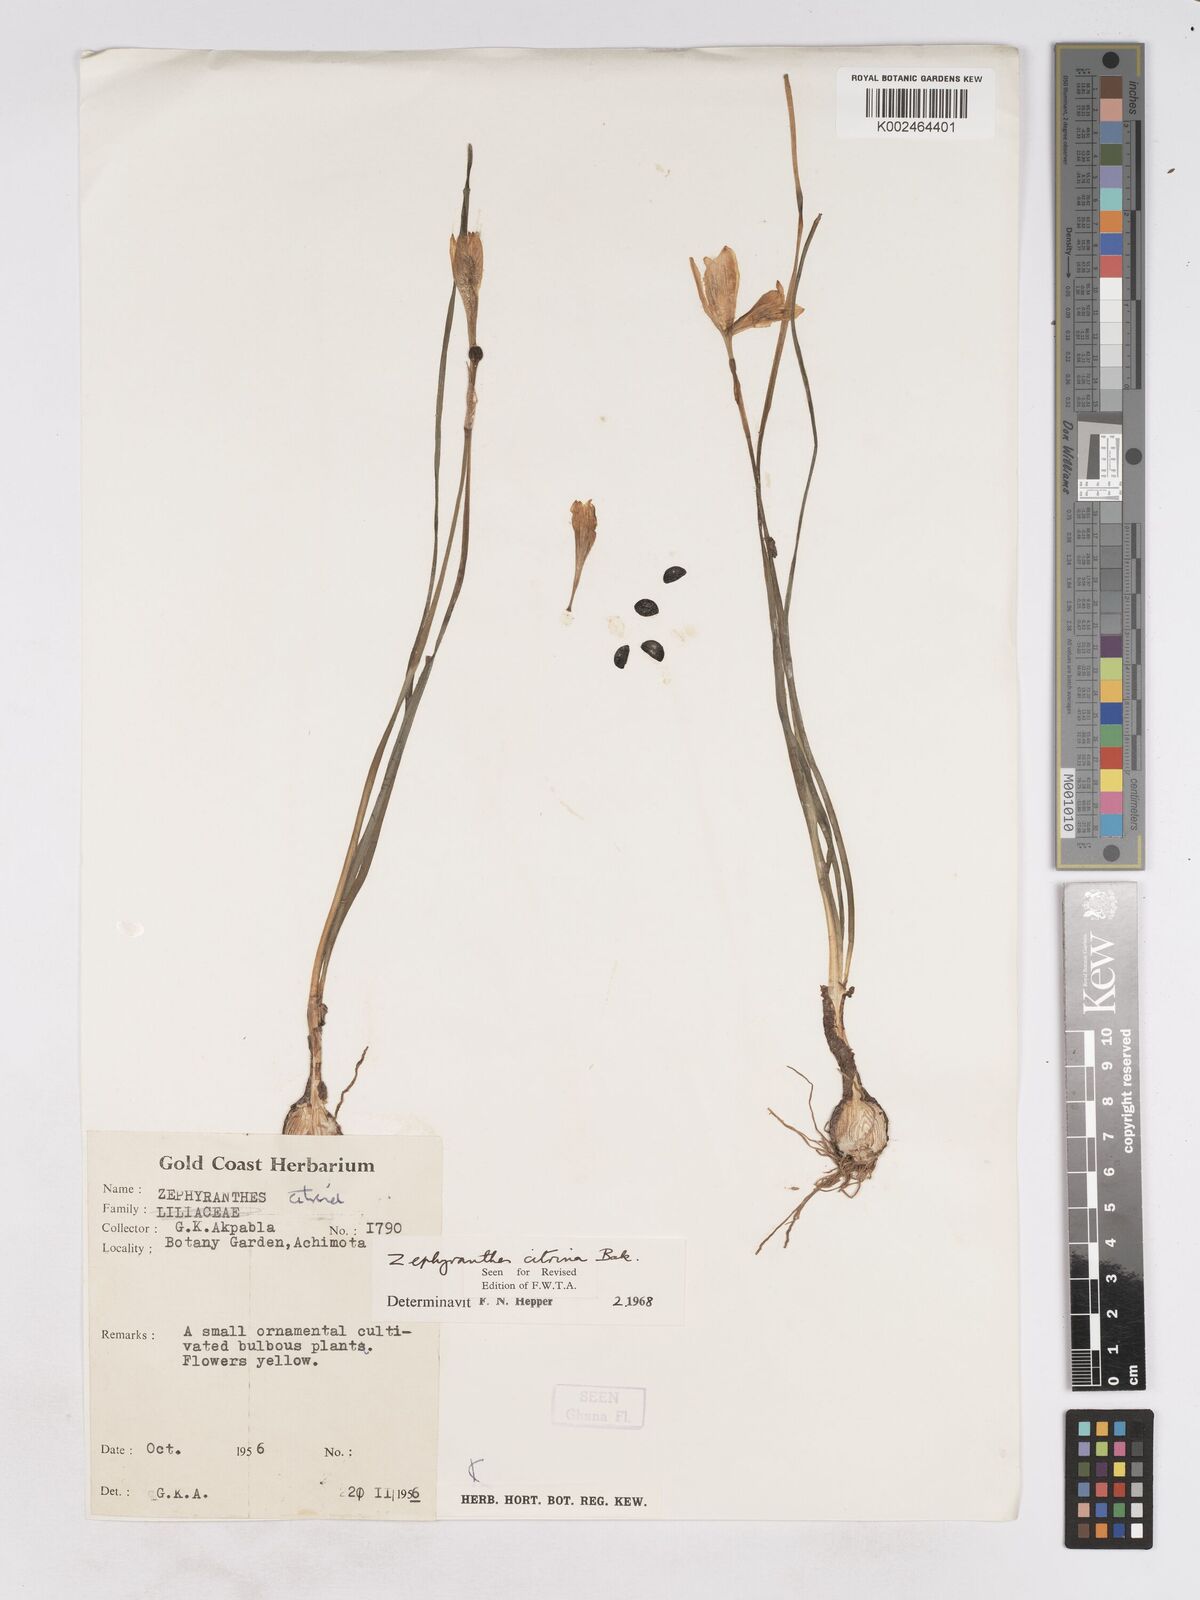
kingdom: Plantae
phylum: Tracheophyta
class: Liliopsida
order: Asparagales
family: Amaryllidaceae
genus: Zephyranthes
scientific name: Zephyranthes citrina
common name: Citron zephyrlily
